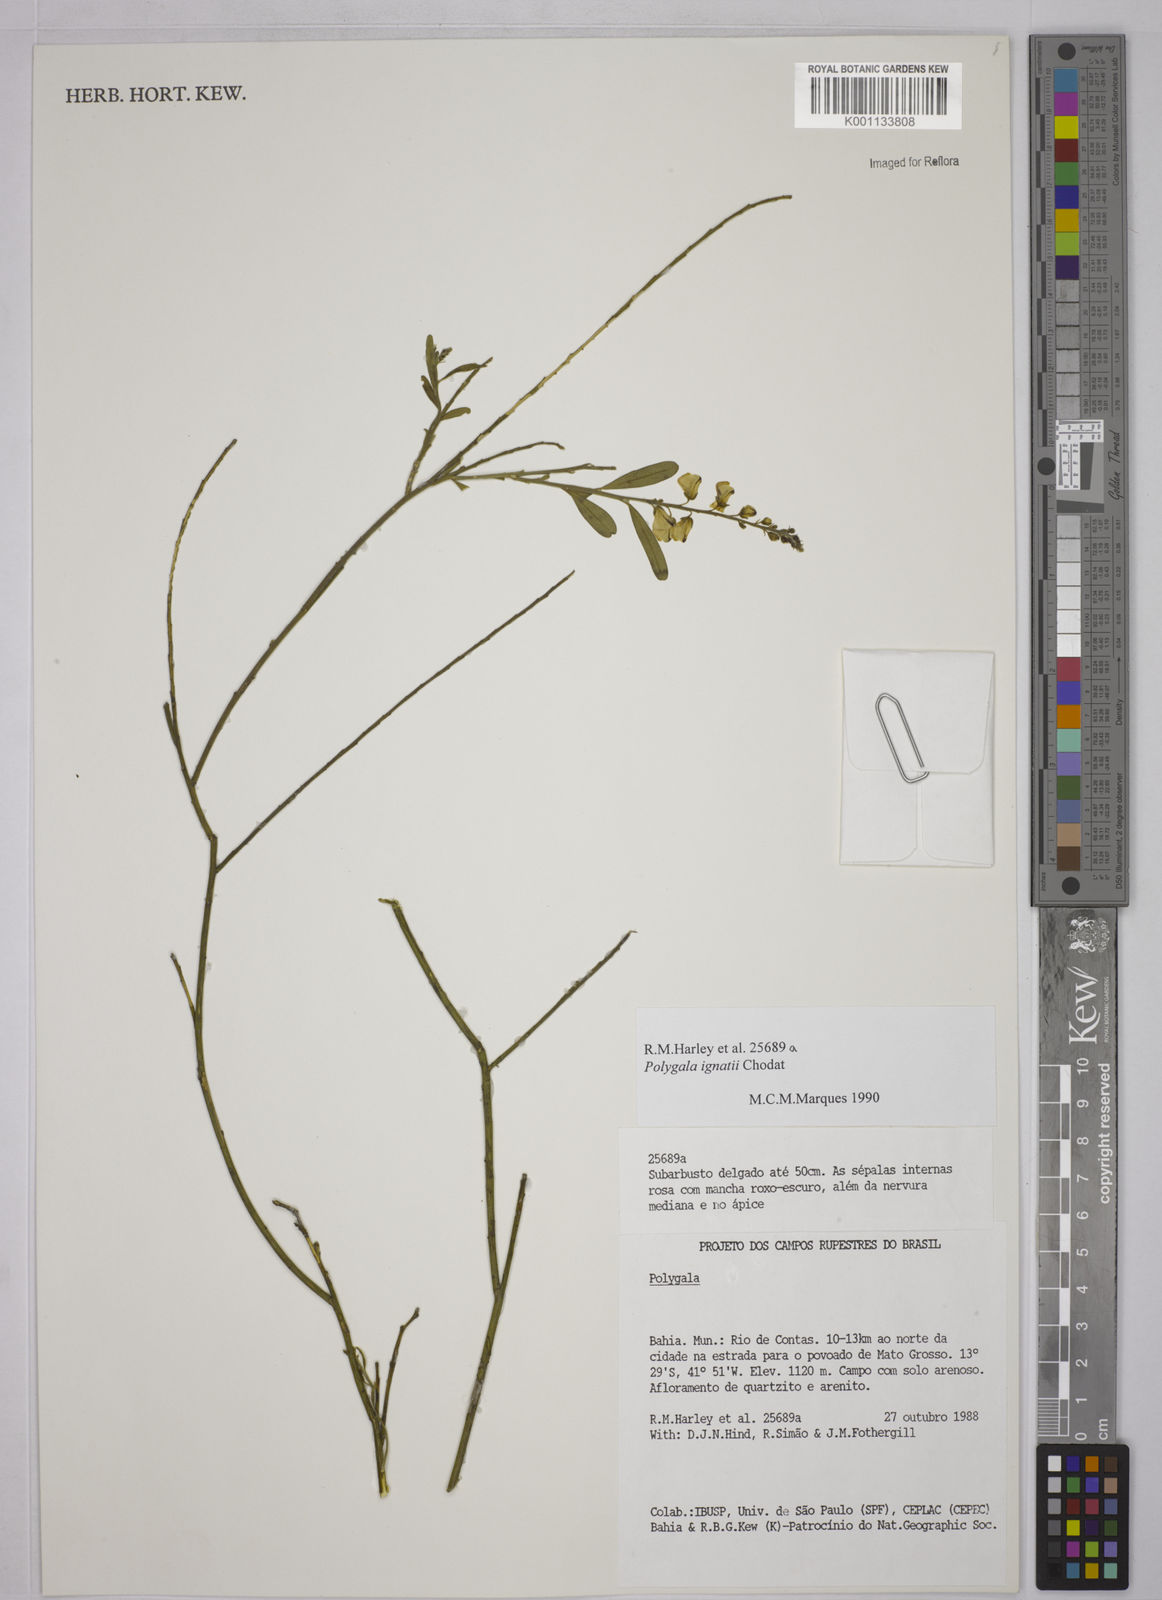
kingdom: Plantae
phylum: Tracheophyta
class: Magnoliopsida
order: Fabales
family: Polygalaceae
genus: Polygala
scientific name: Polygala
